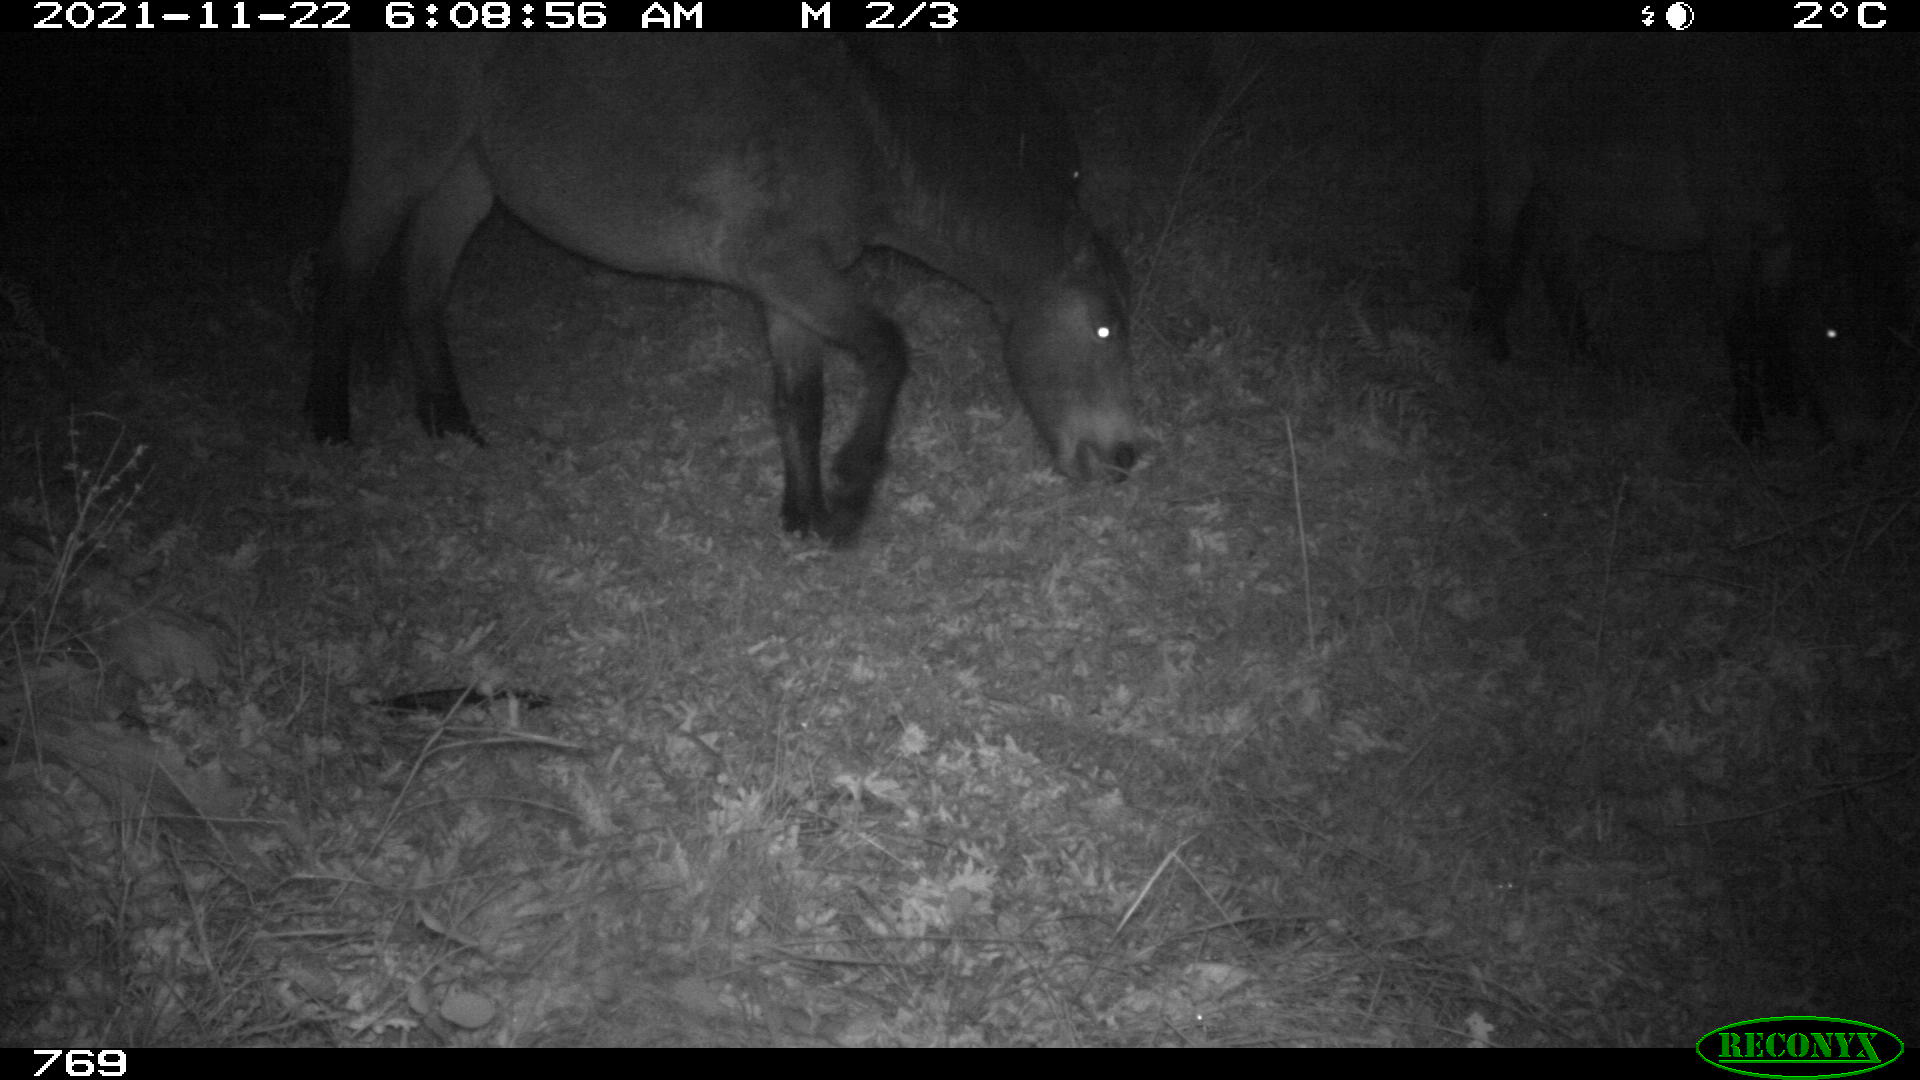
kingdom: Animalia
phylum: Chordata
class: Mammalia
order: Perissodactyla
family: Equidae
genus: Equus
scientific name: Equus caballus
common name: Horse
